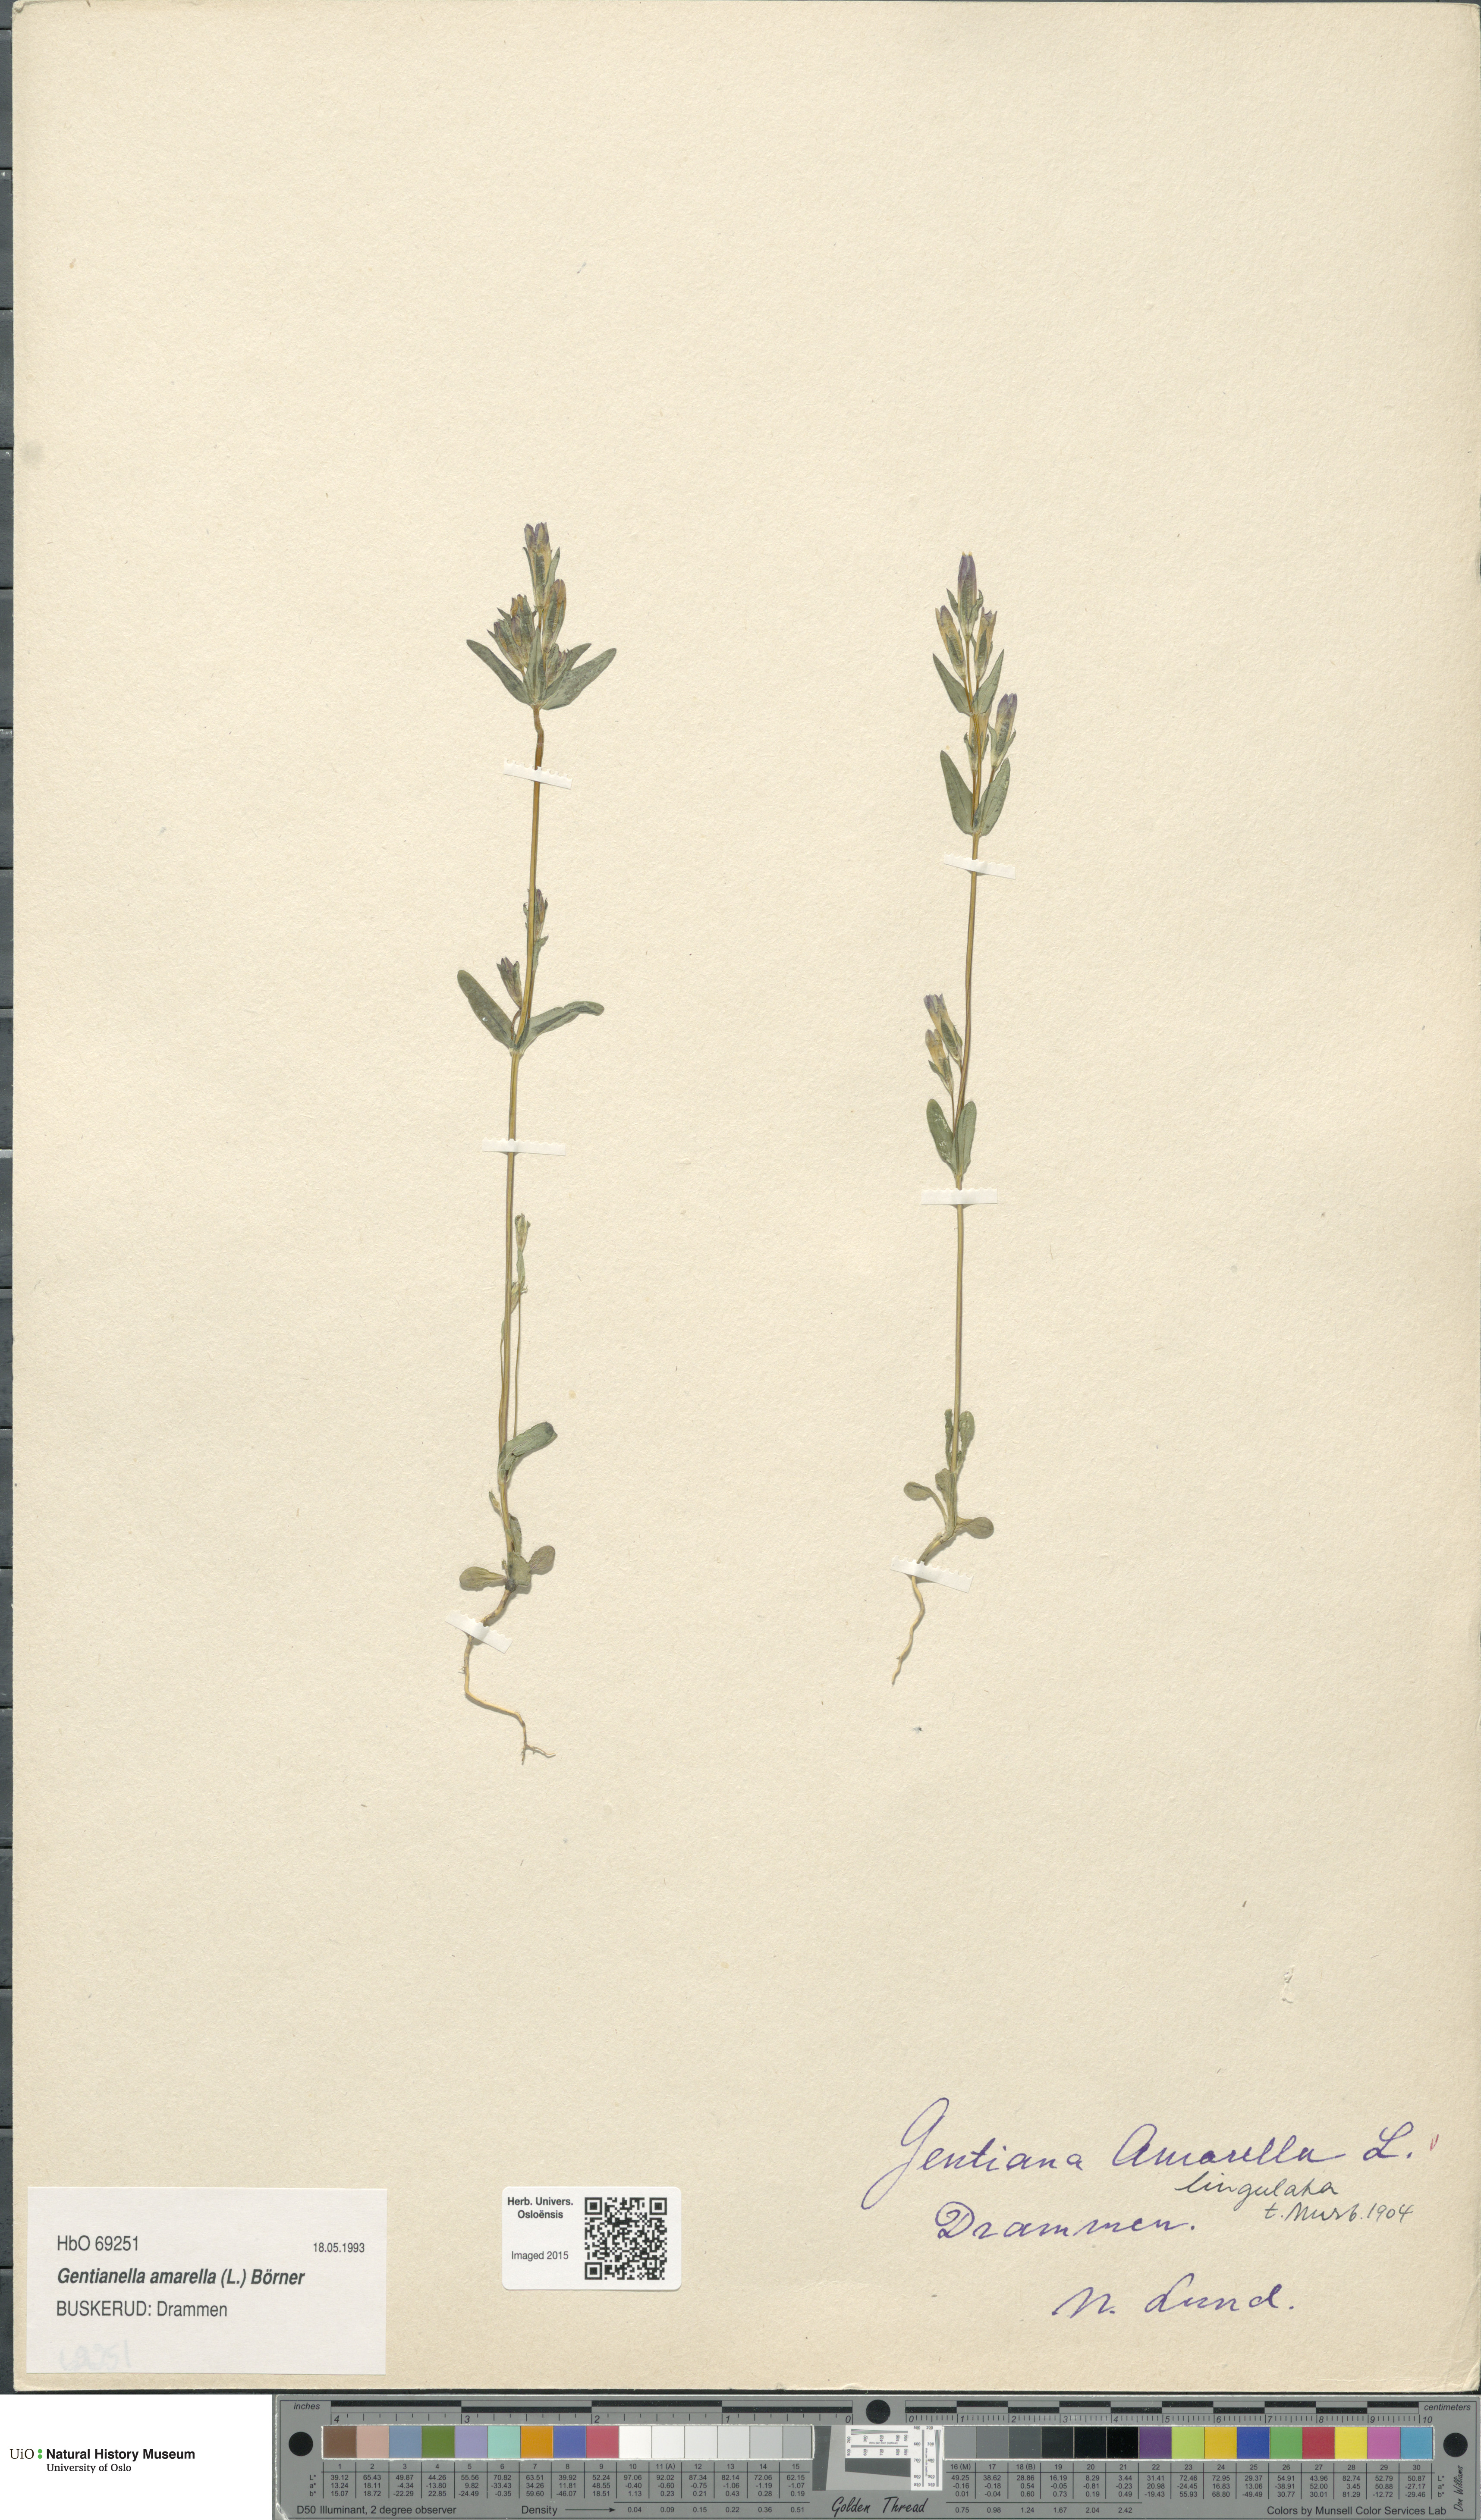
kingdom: Plantae
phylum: Tracheophyta
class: Magnoliopsida
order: Gentianales
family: Gentianaceae
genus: Gentianella
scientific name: Gentianella amarella
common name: Autumn gentian
